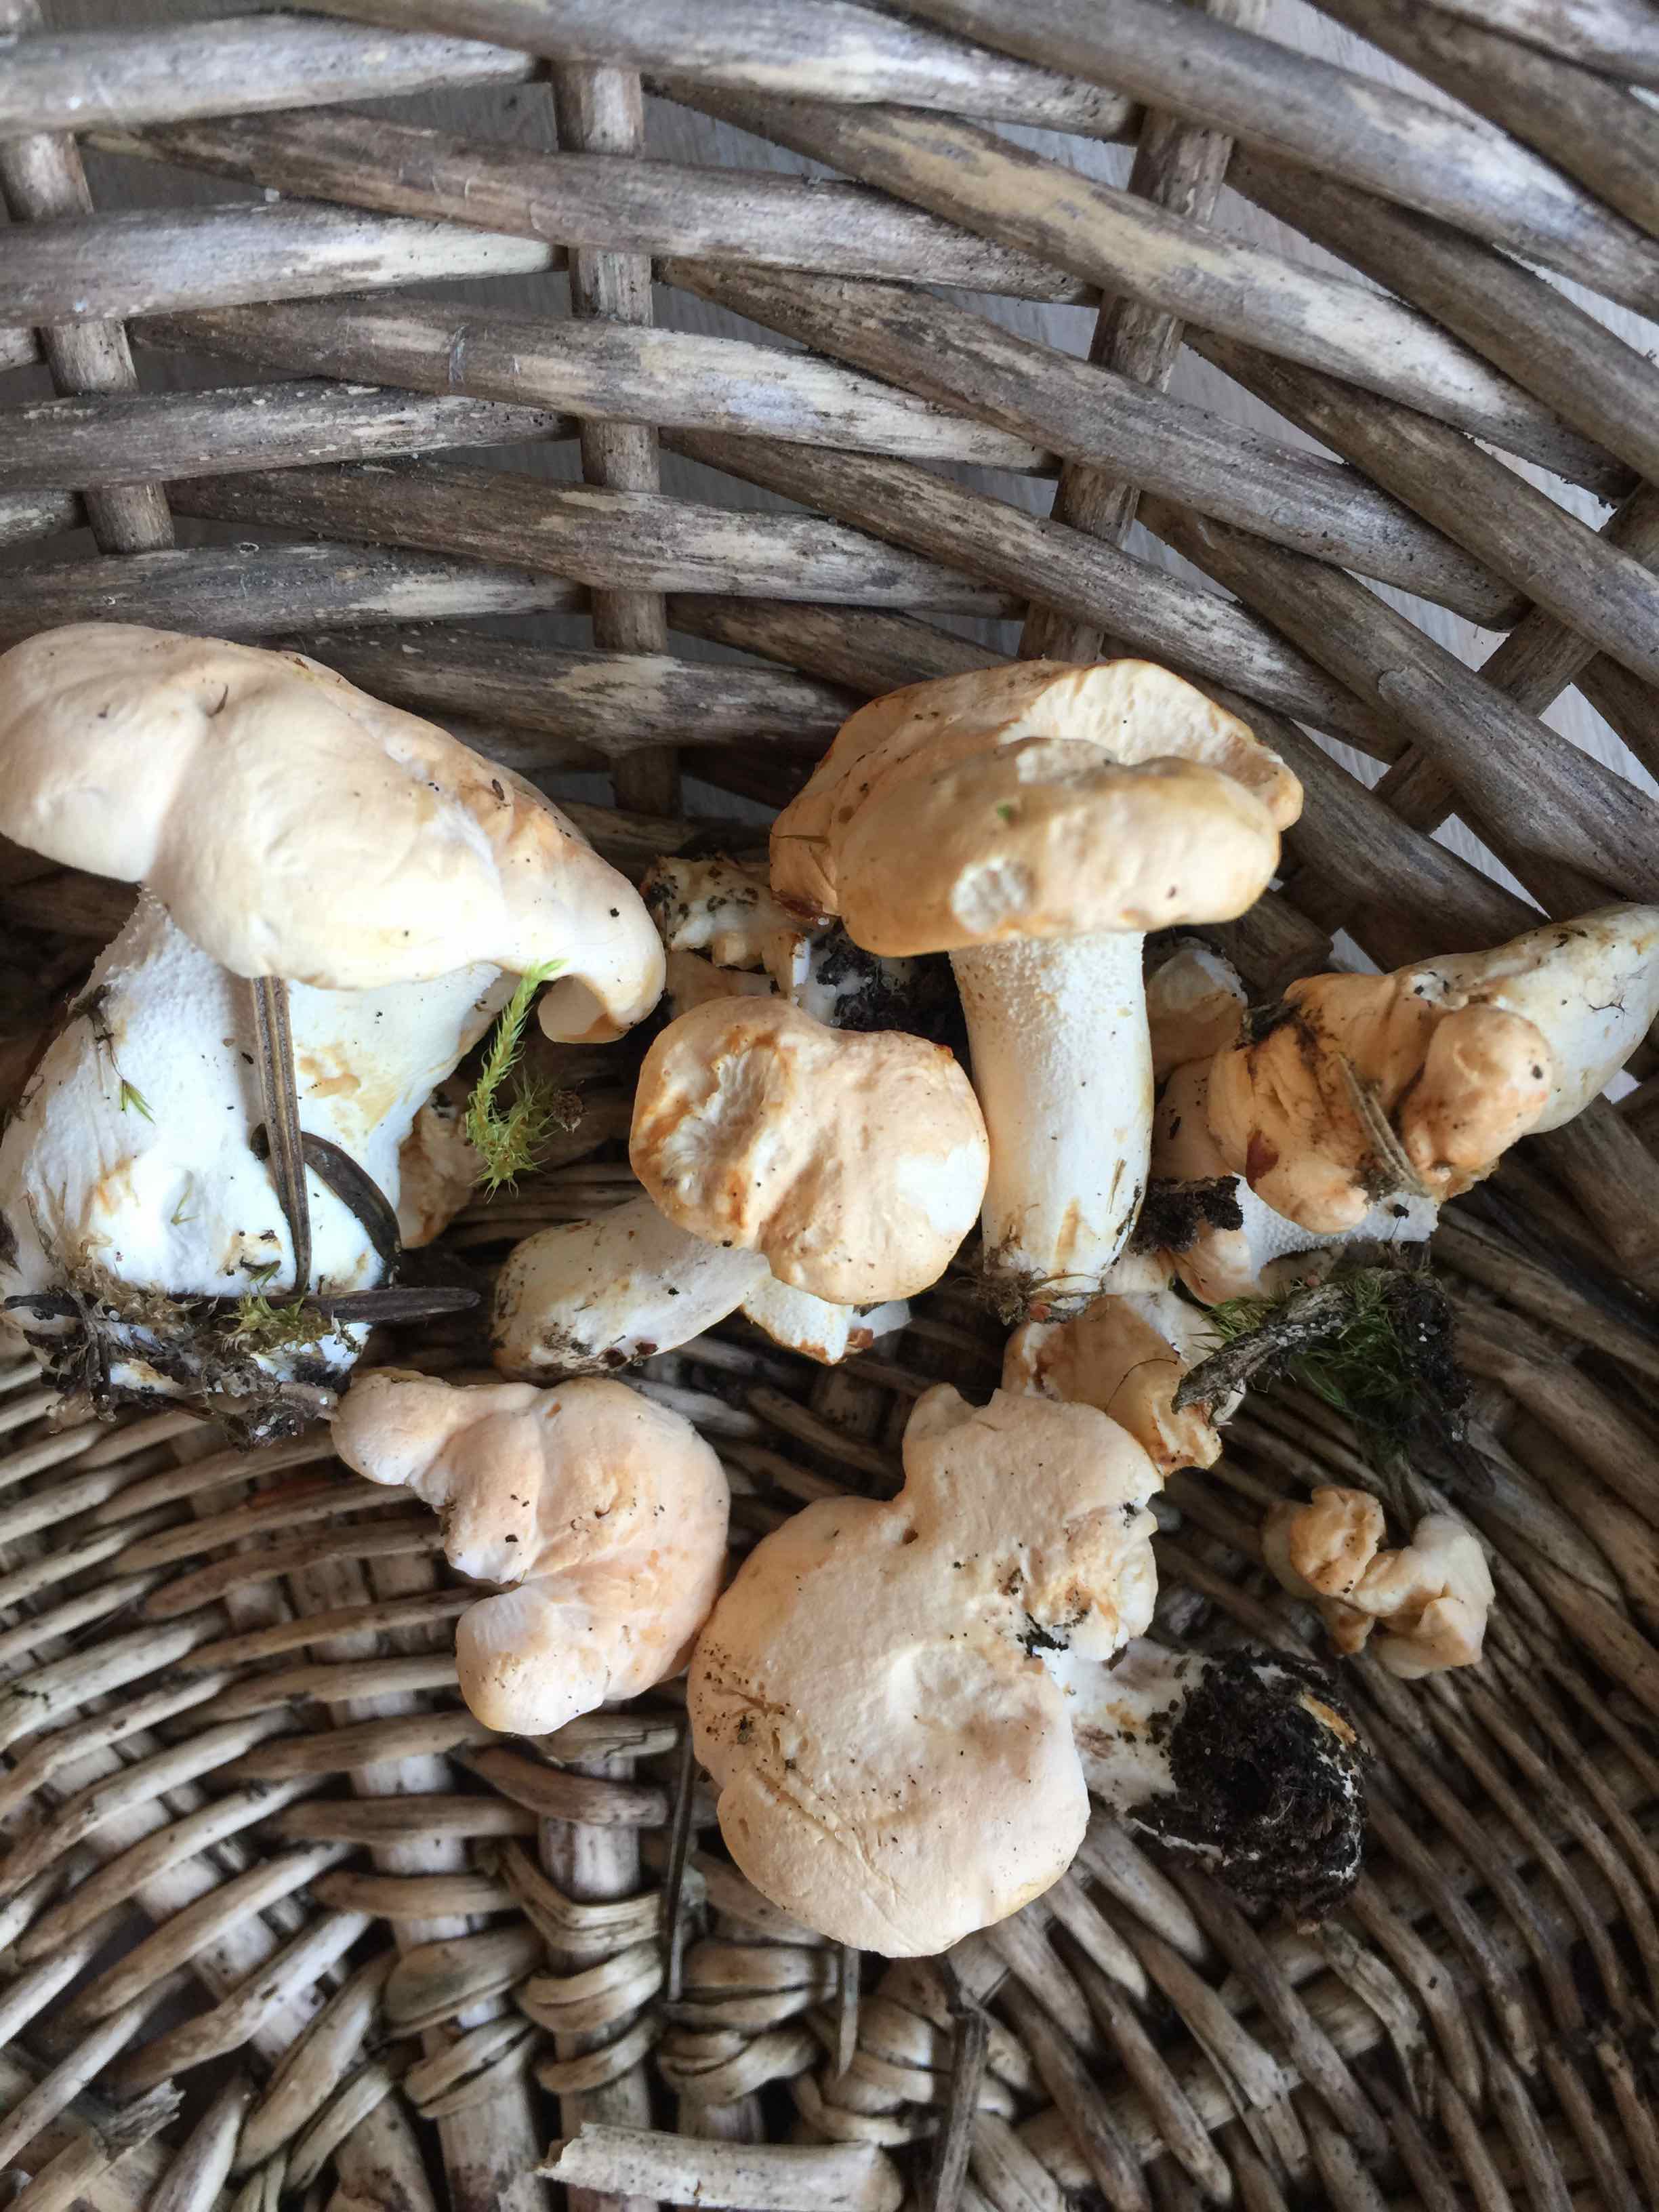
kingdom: Fungi
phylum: Basidiomycota
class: Agaricomycetes
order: Cantharellales
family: Hydnaceae
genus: Hydnum
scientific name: Hydnum
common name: pigsvamp
